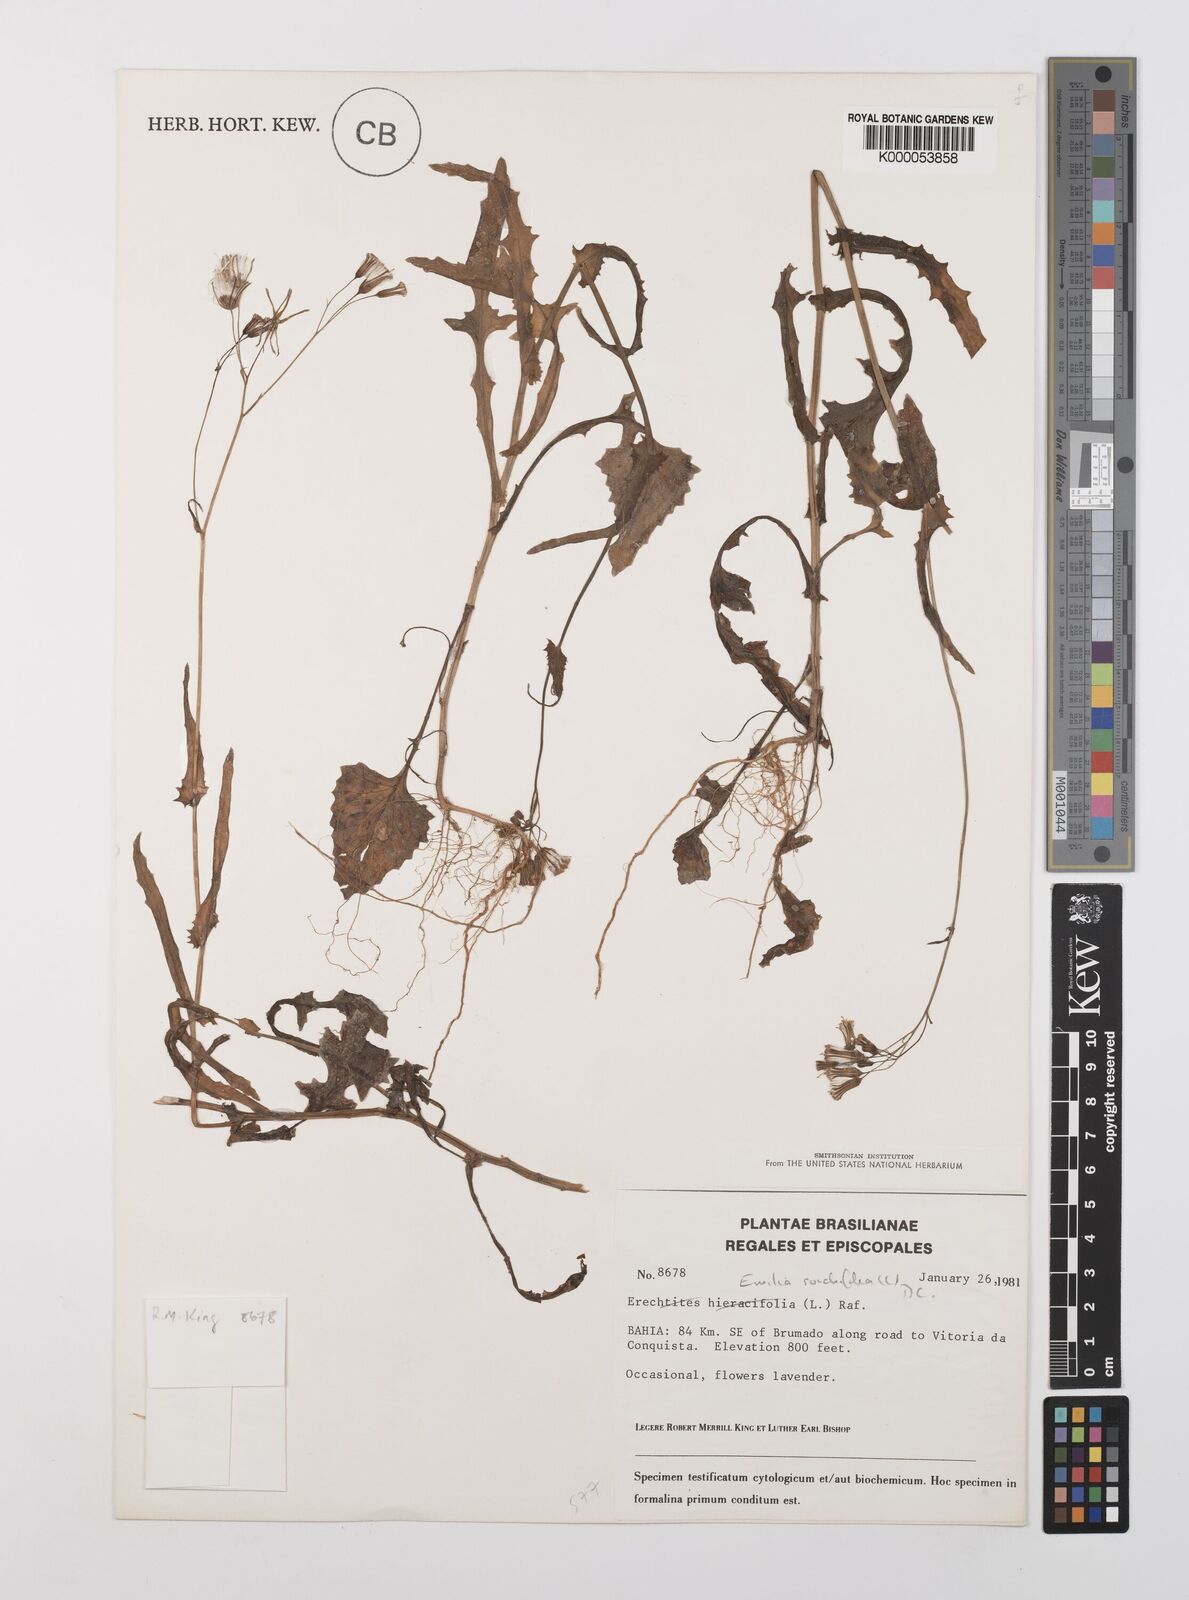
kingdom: Plantae
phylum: Tracheophyta
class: Magnoliopsida
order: Asterales
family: Asteraceae
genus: Emilia
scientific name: Emilia
